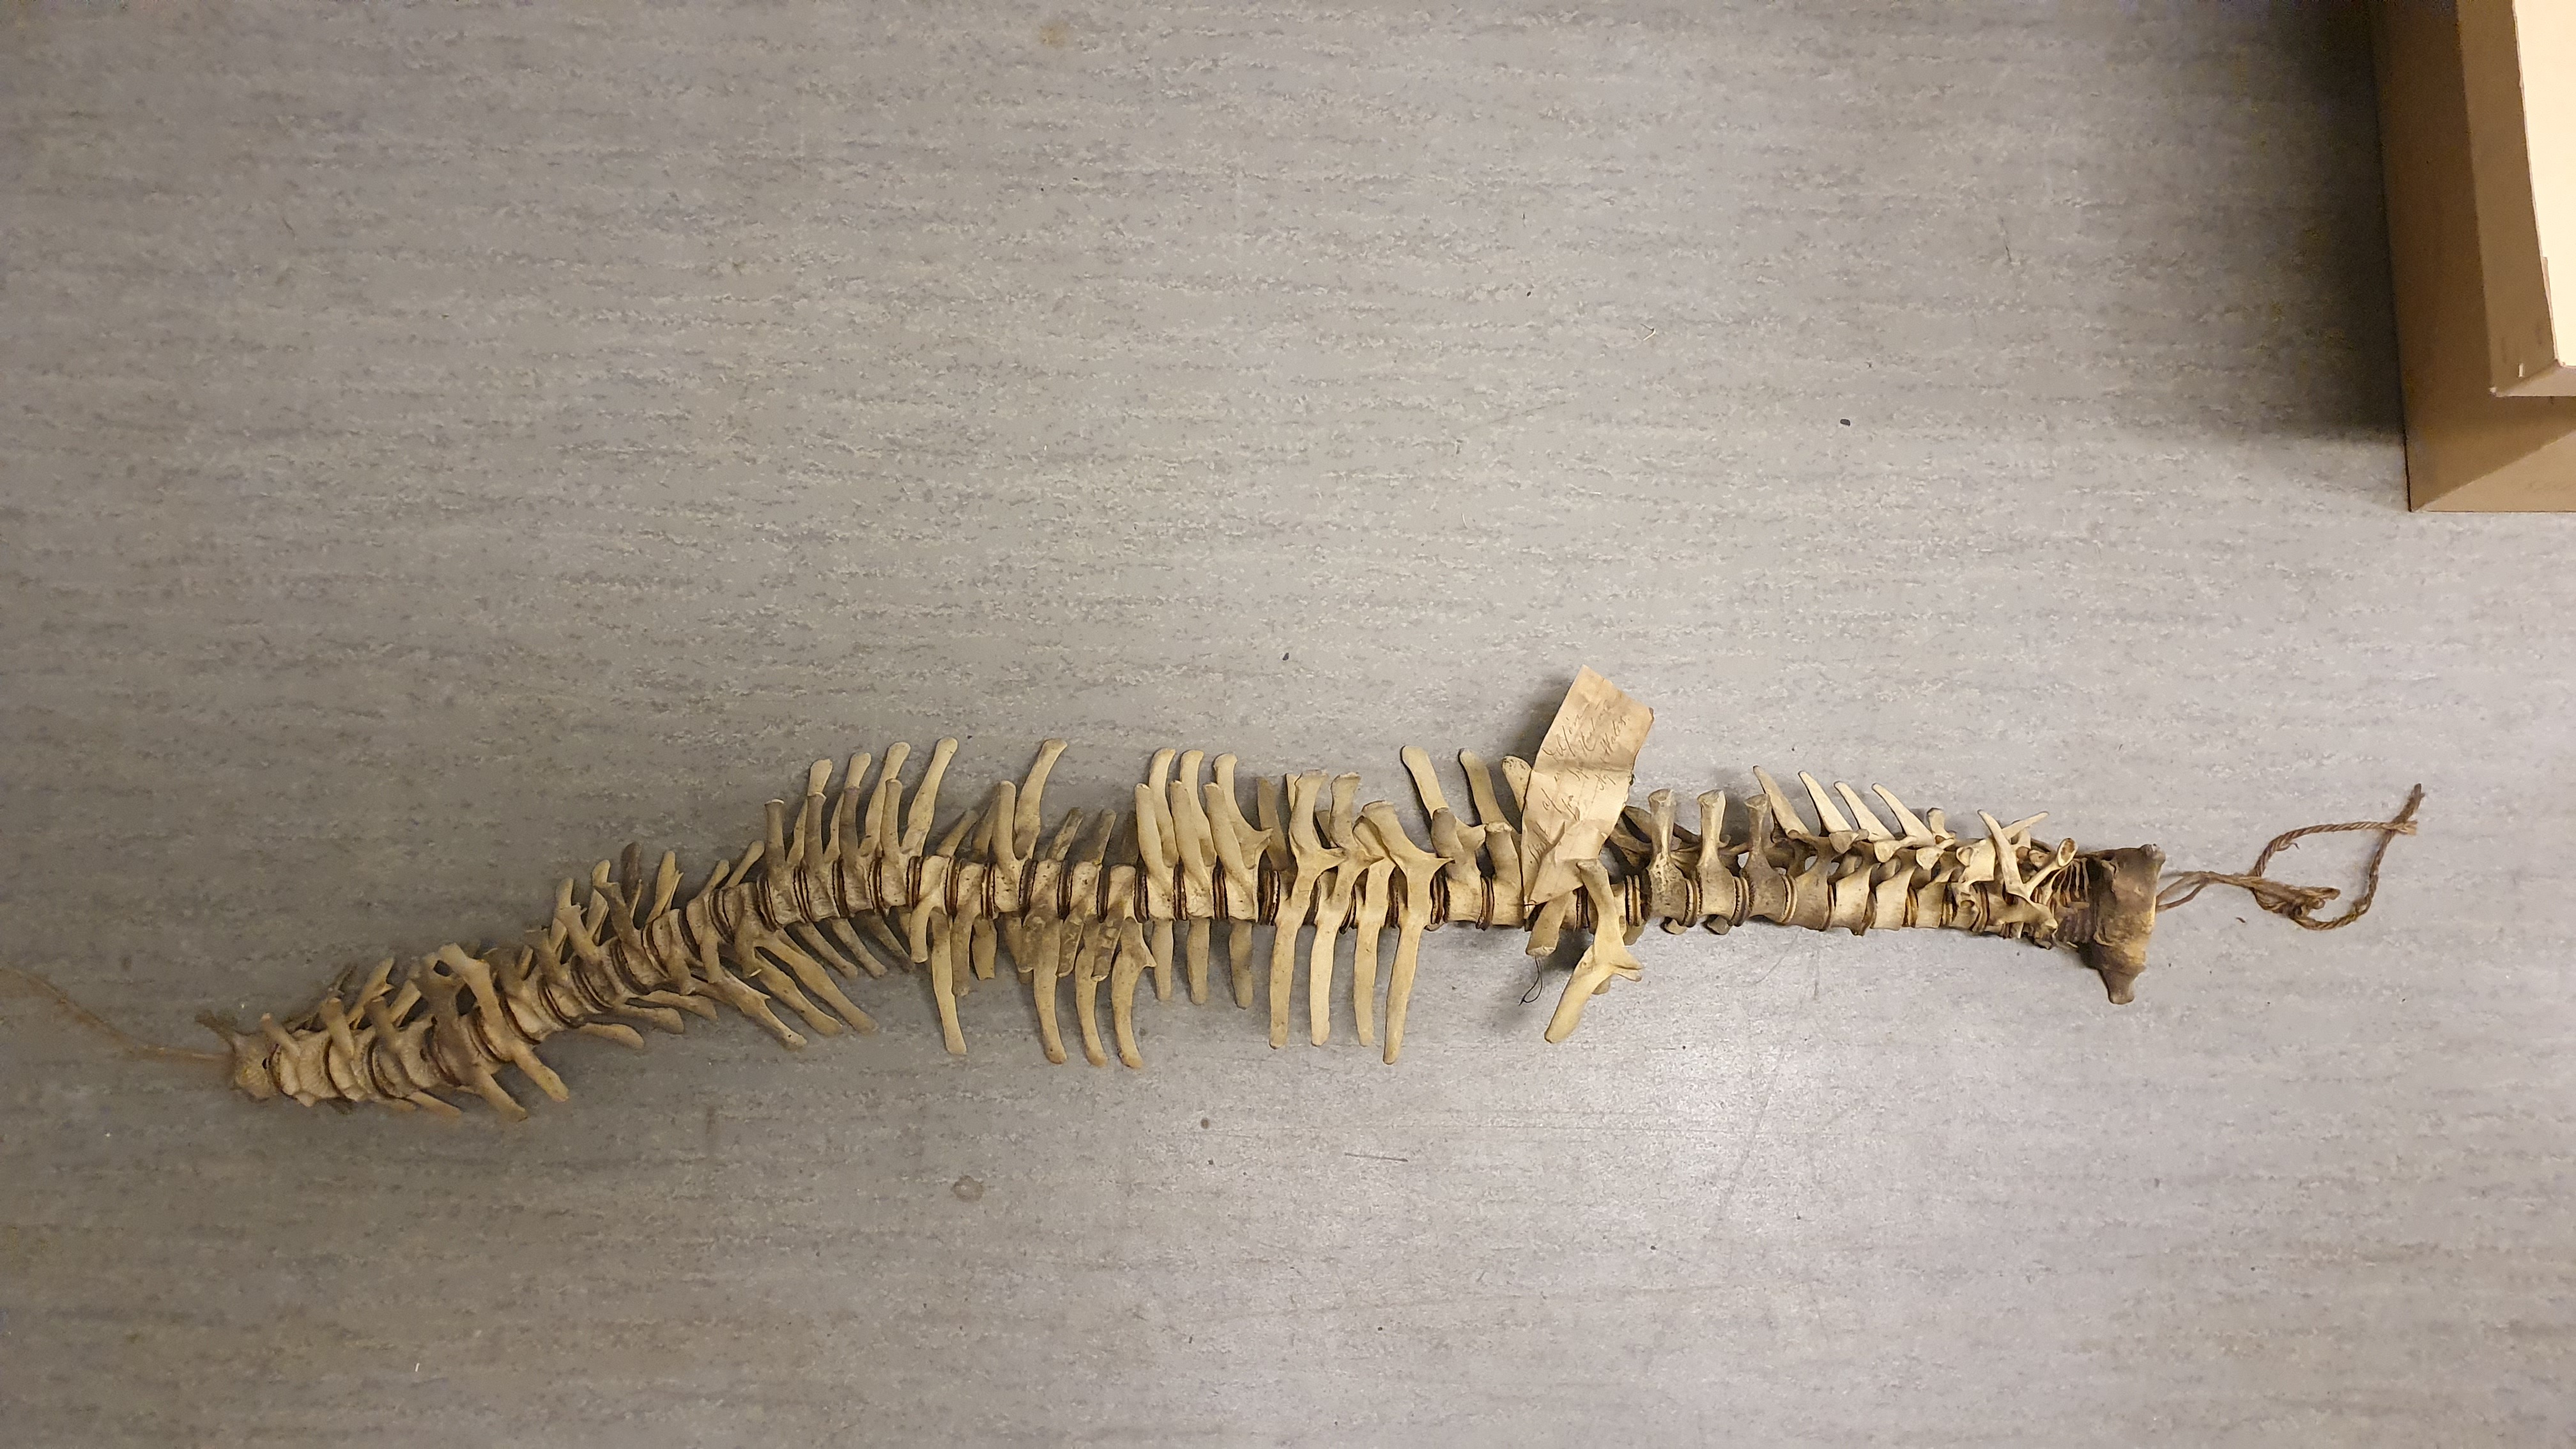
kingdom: Animalia
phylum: Chordata
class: Mammalia
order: Cetacea
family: Delphinidae
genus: Delphinus
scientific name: Delphinus delphis
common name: Common dolphin
